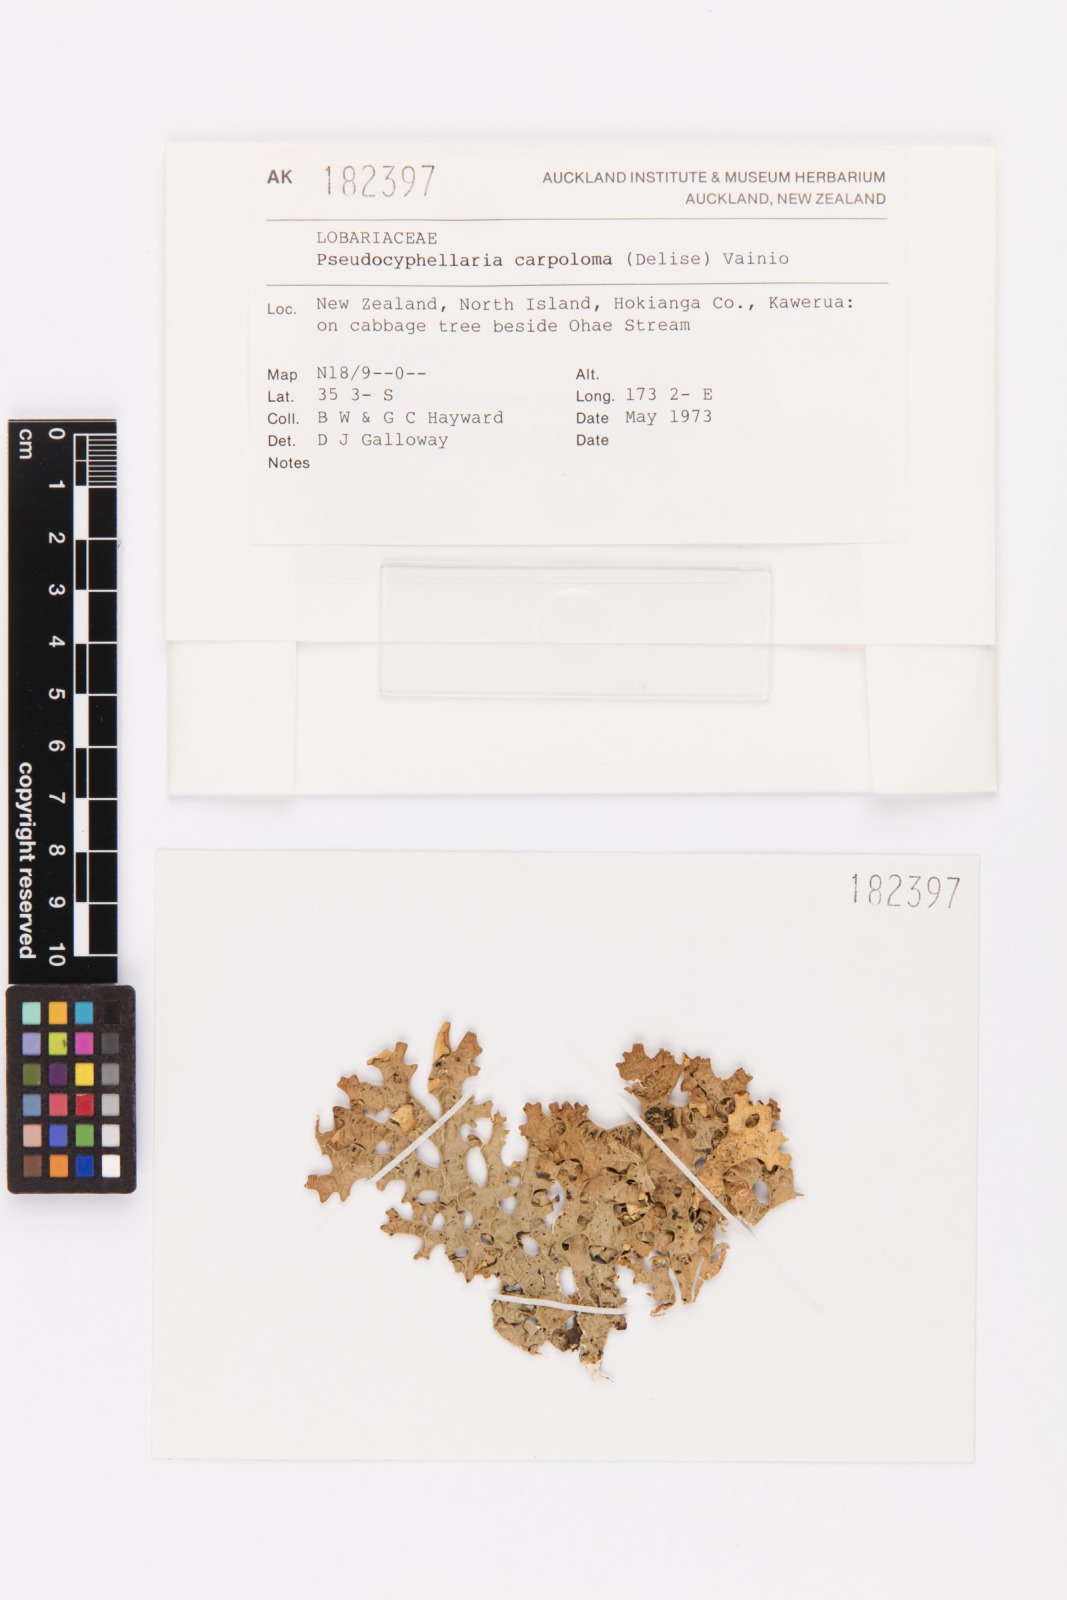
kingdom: Fungi
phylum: Ascomycota
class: Lecanoromycetes
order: Peltigerales
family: Lobariaceae
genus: Pseudocyphellaria
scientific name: Pseudocyphellaria carpoloma
